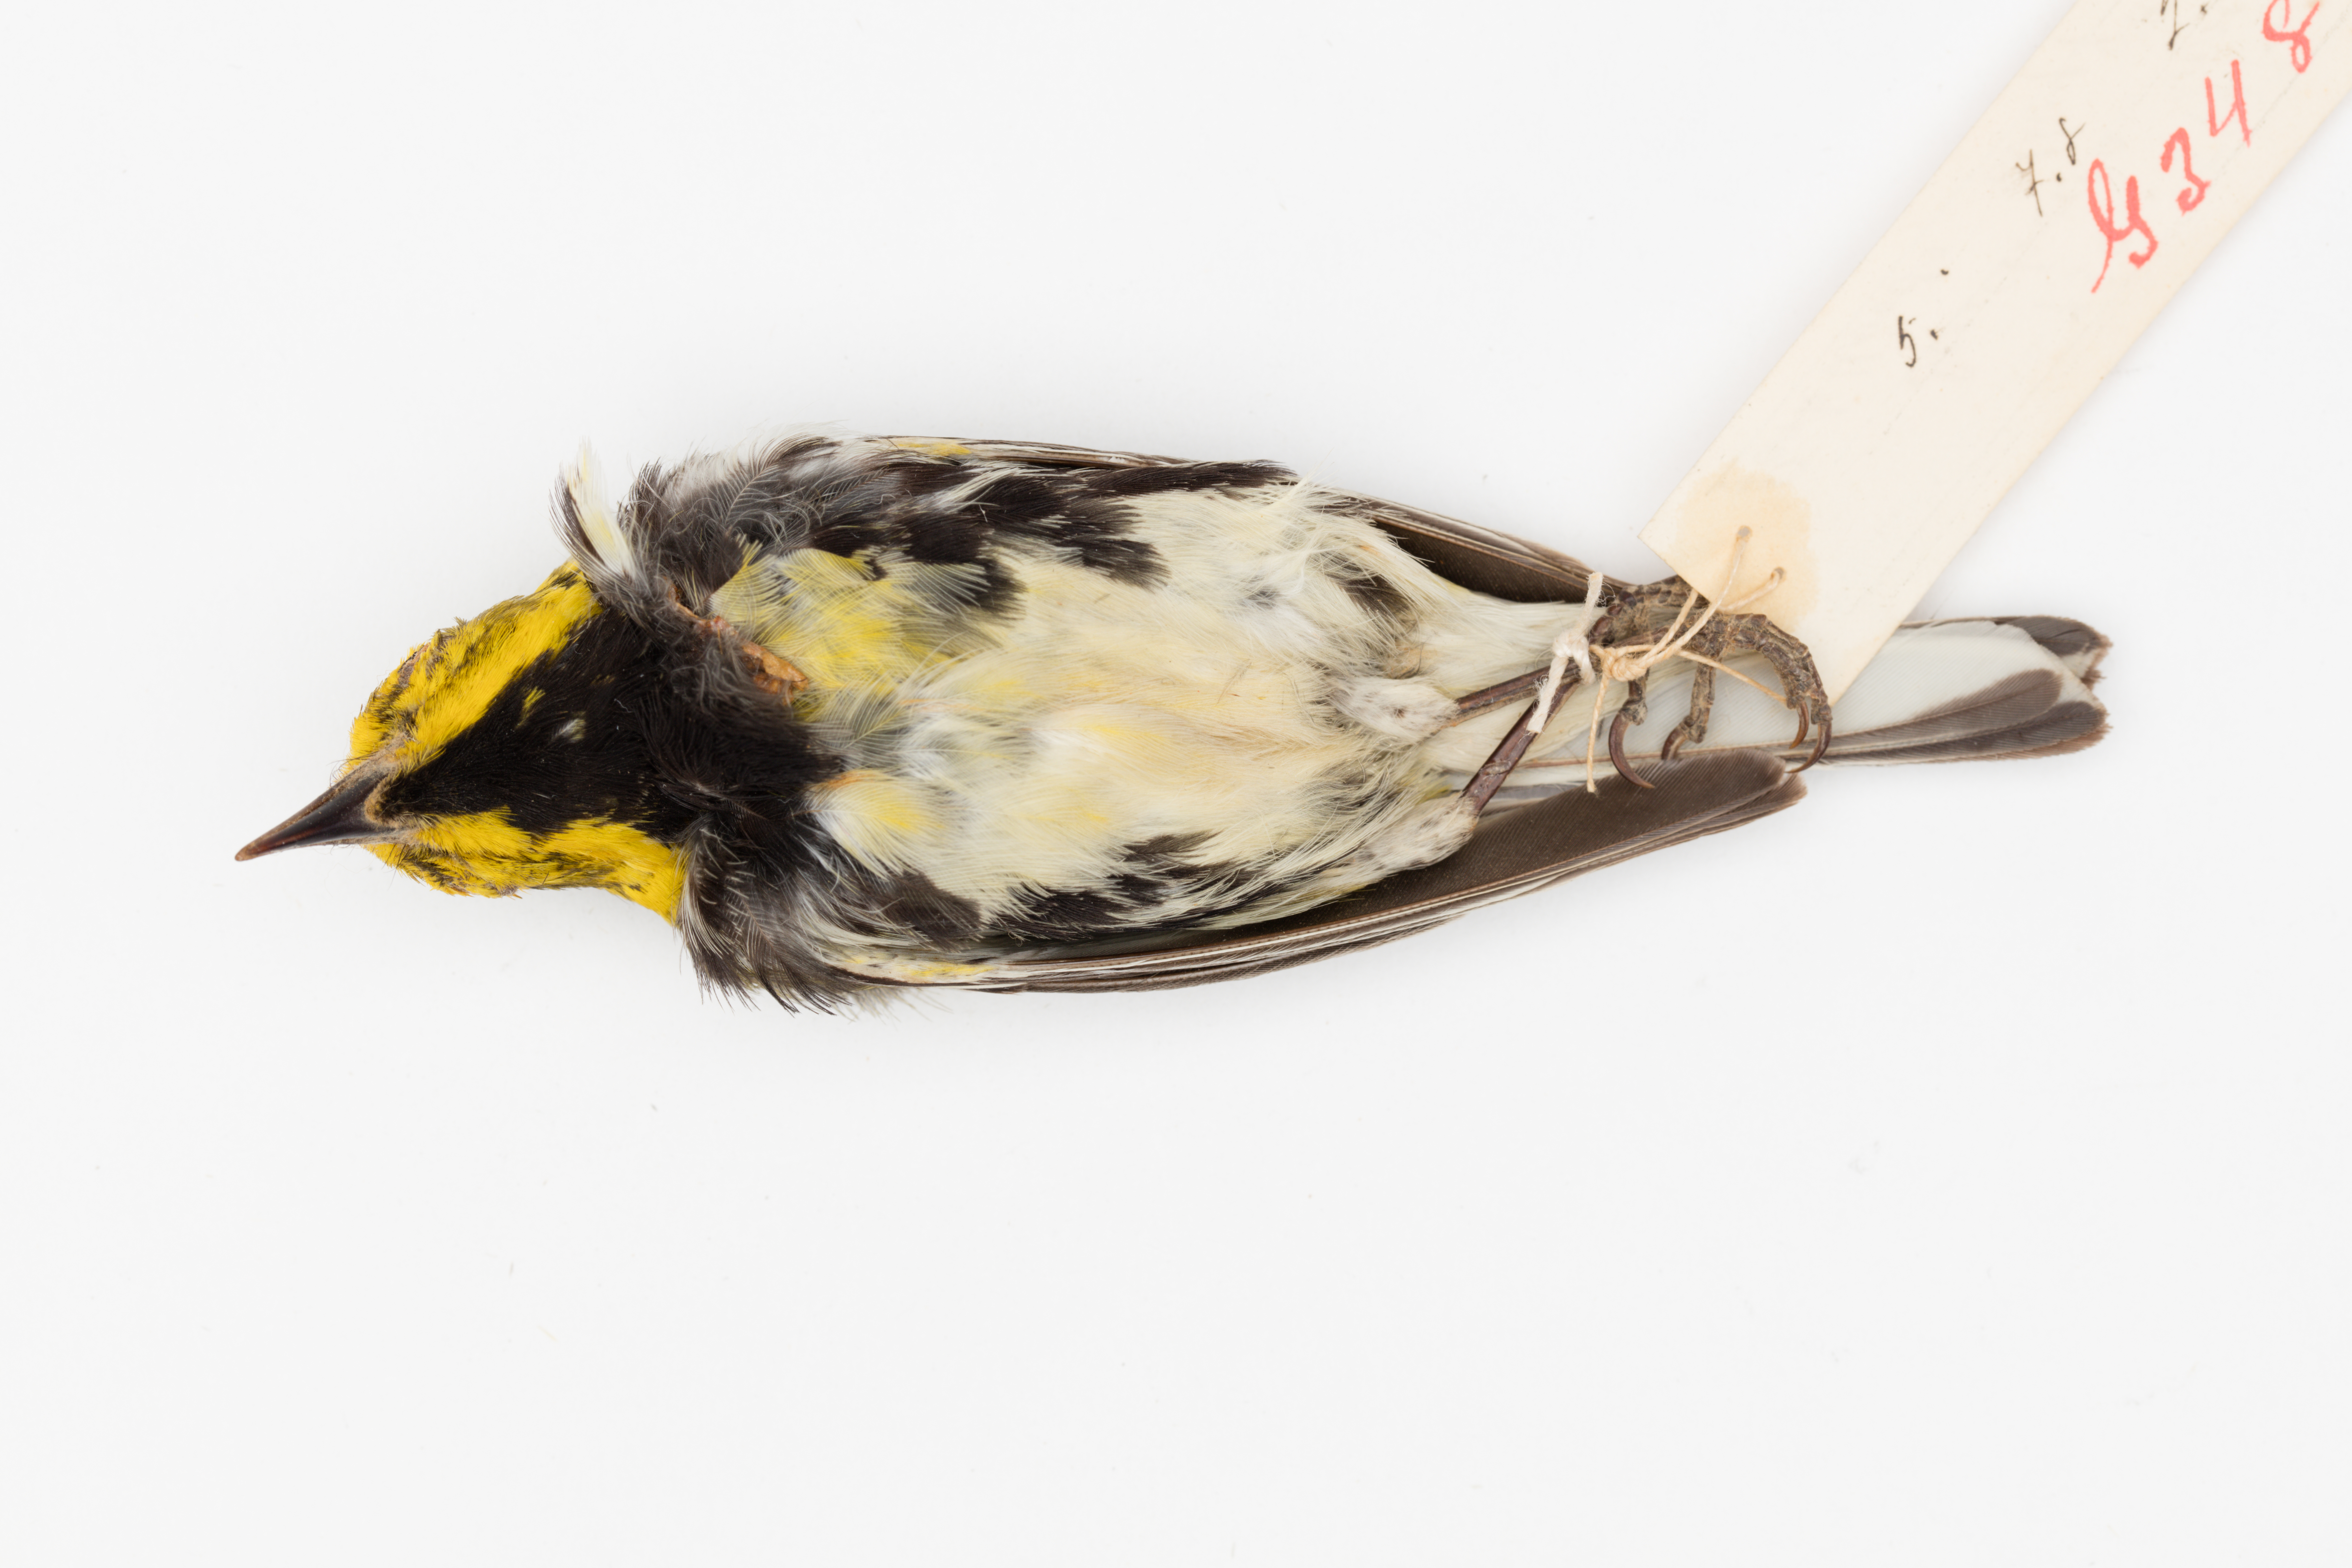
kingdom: Animalia
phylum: Chordata
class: Aves
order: Passeriformes
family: Parulidae
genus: Setophaga
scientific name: Setophaga virens
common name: Black-throated green warbler
